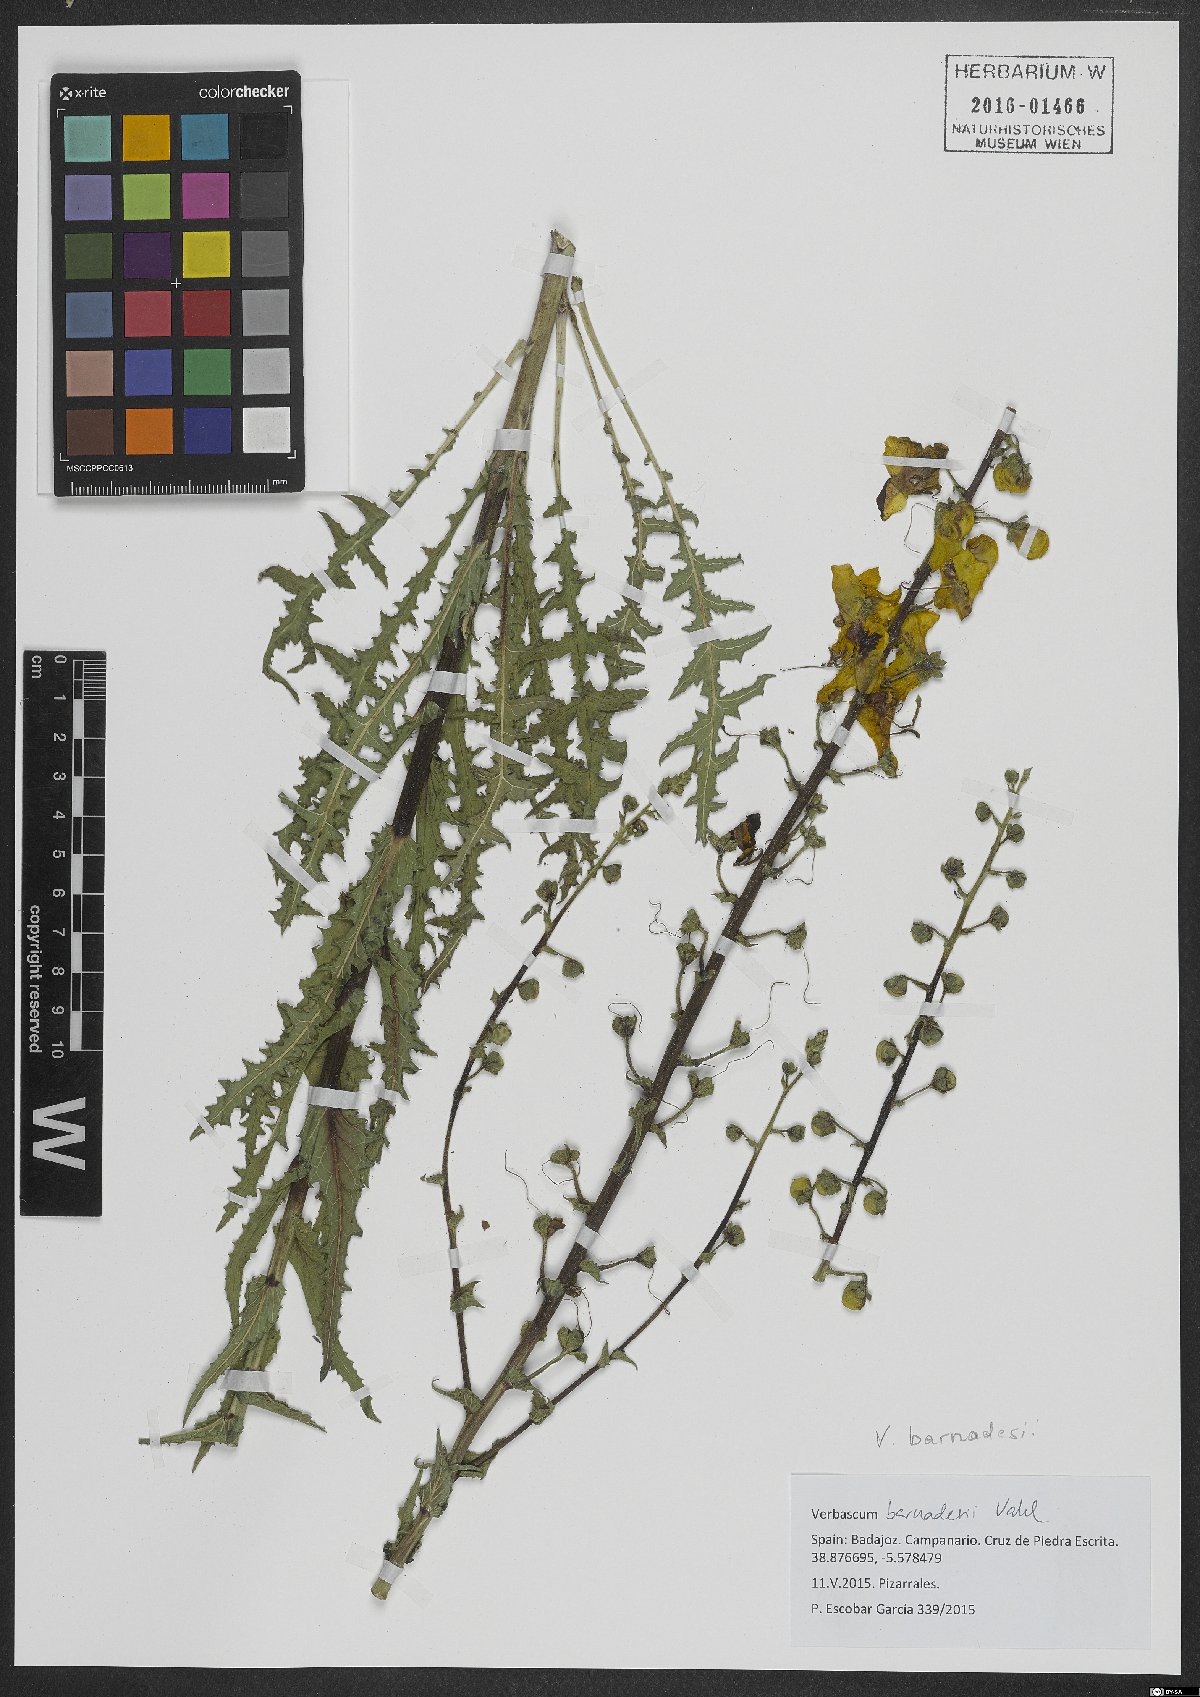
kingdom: Plantae
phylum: Tracheophyta
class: Magnoliopsida
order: Lamiales
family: Scrophulariaceae
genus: Verbascum
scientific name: Verbascum barnadesii
